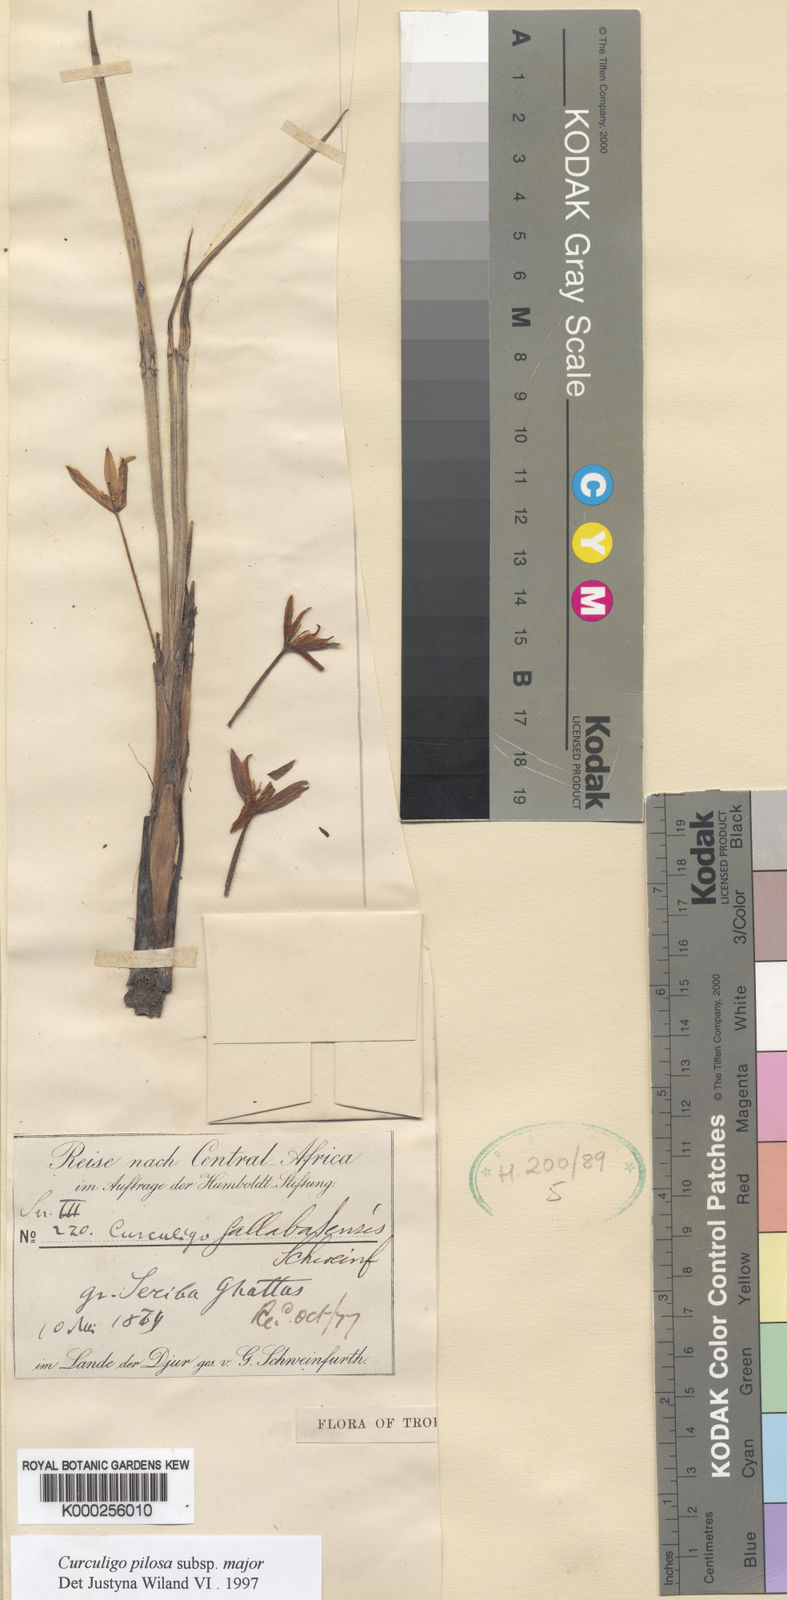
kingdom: Plantae
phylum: Tracheophyta
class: Liliopsida
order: Asparagales
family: Hypoxidaceae
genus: Curculigo
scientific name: Curculigo pilosa
